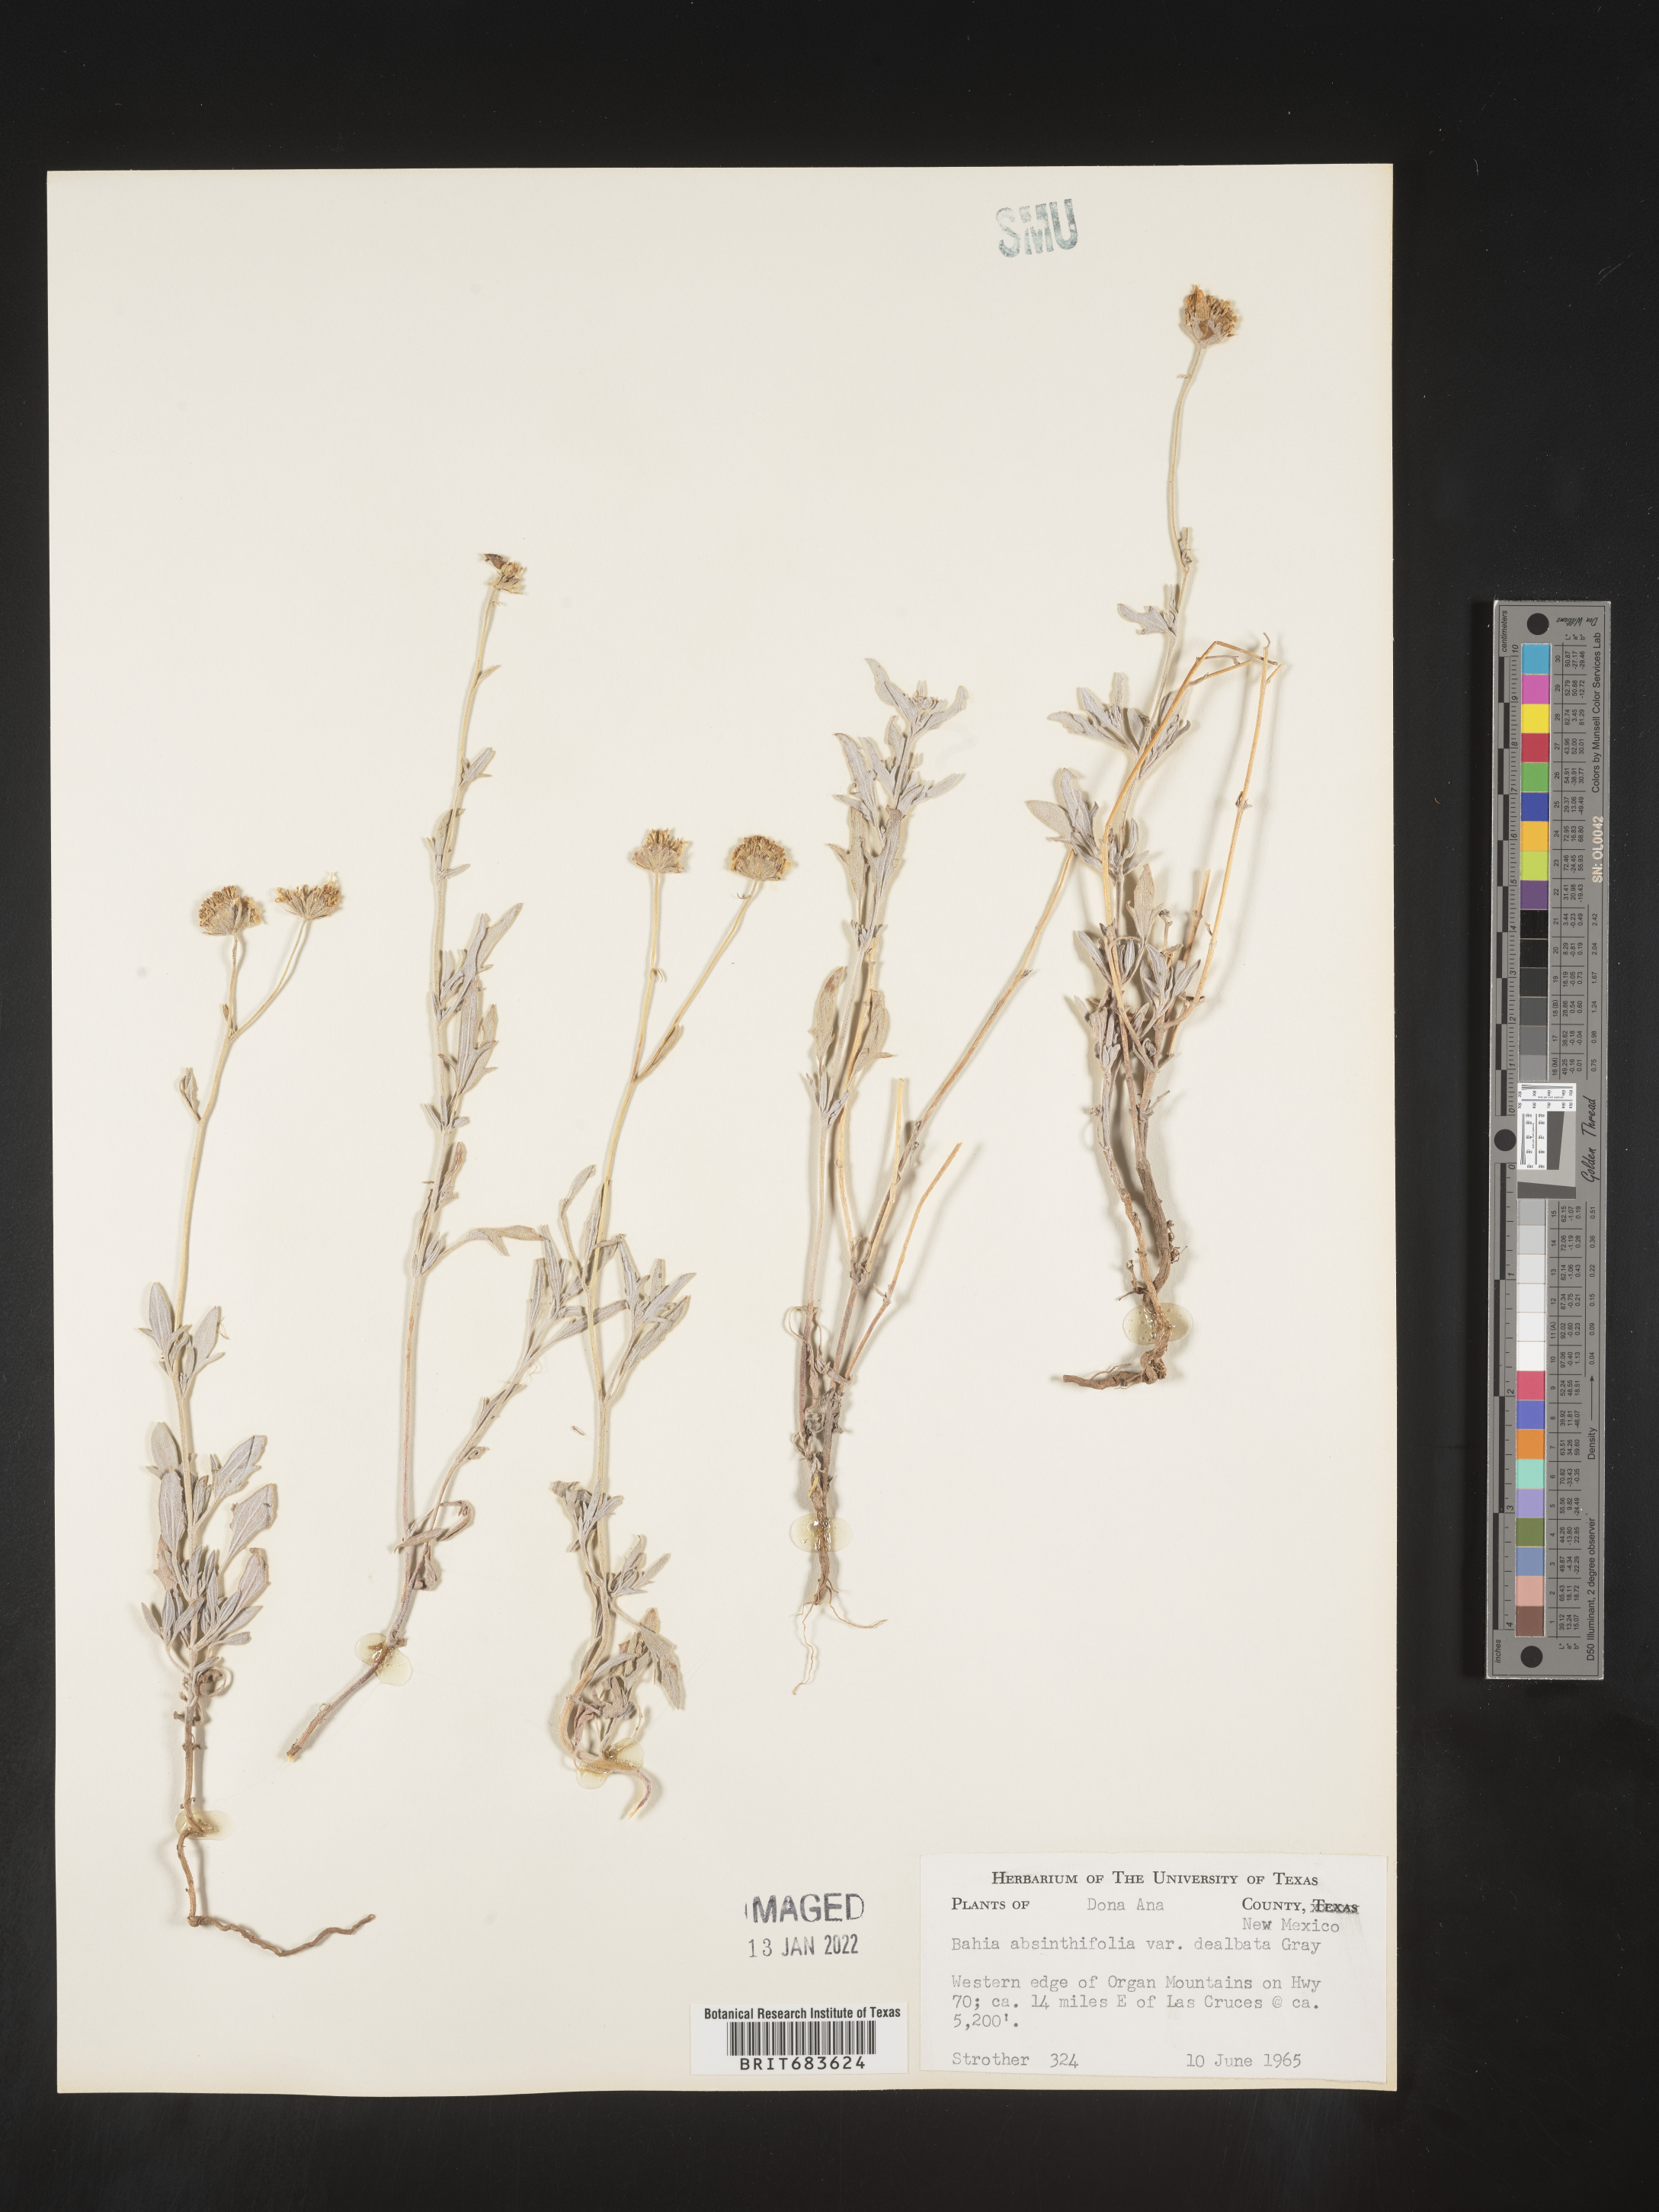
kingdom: Plantae
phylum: Tracheophyta
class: Magnoliopsida
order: Asterales
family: Asteraceae
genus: Picradeniopsis
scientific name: Picradeniopsis absinthifolia
